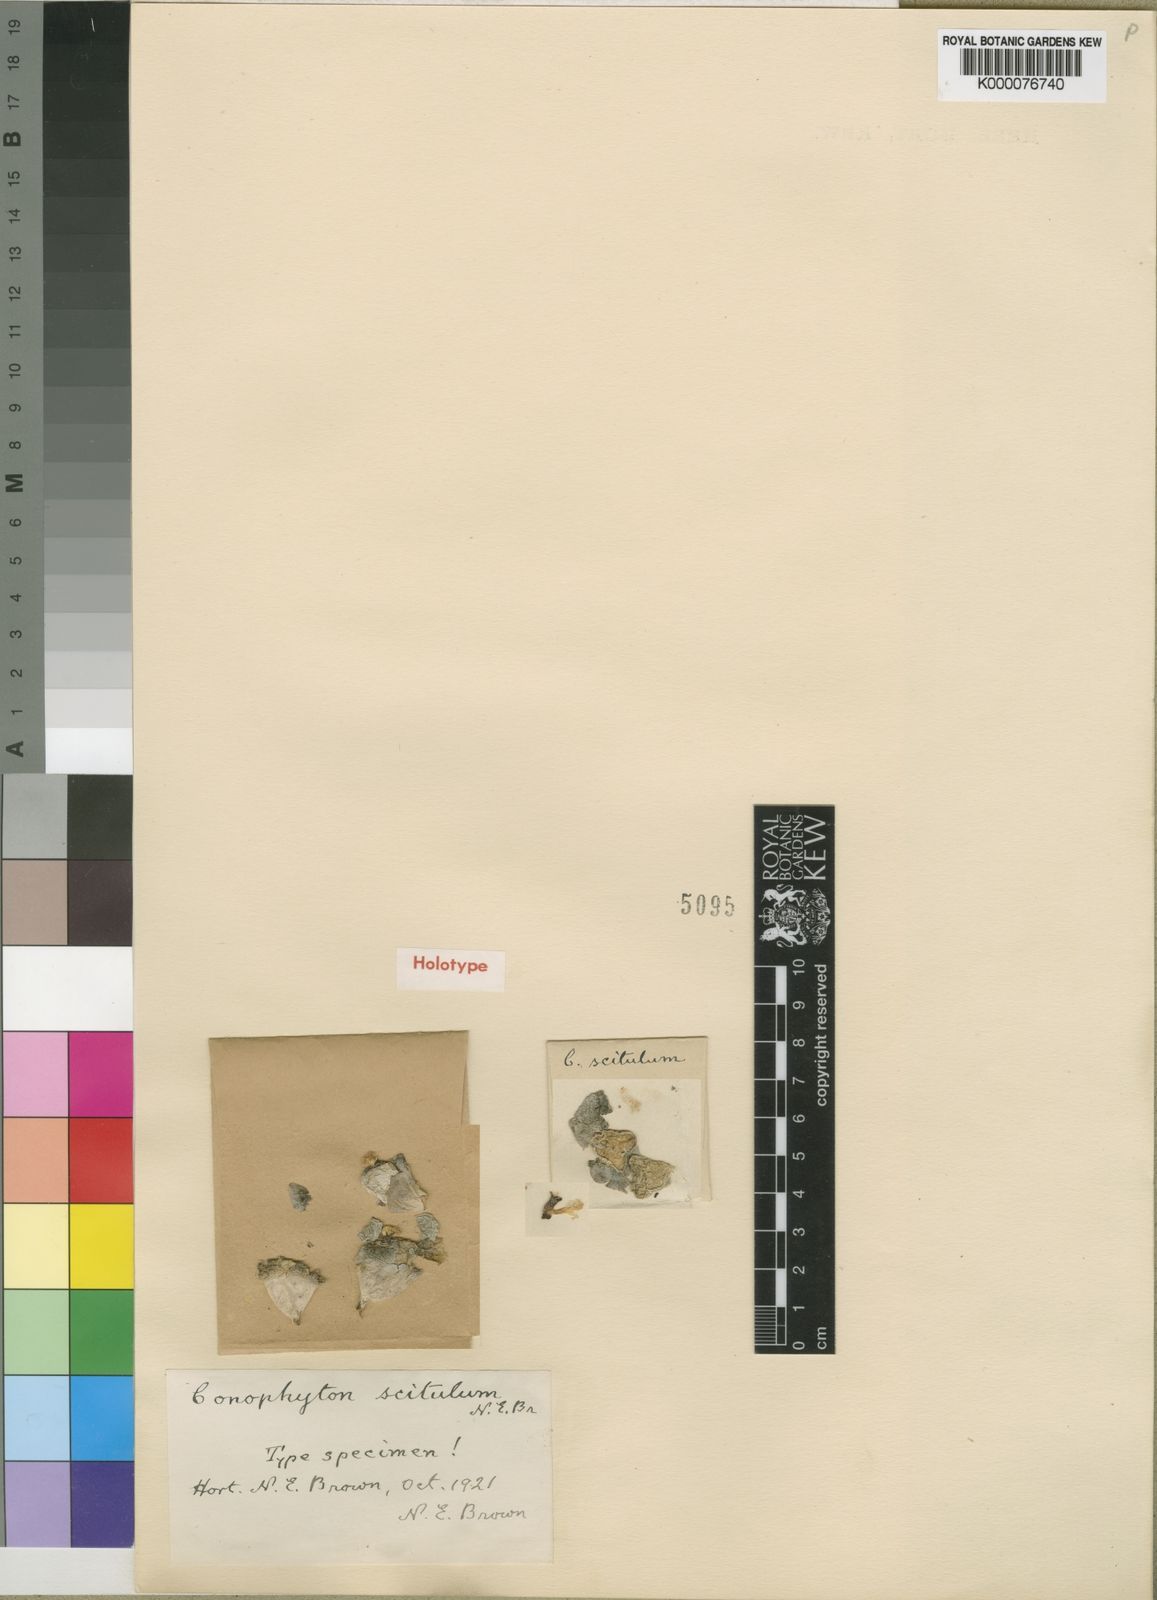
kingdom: Plantae
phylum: Tracheophyta
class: Magnoliopsida
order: Caryophyllales
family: Aizoaceae
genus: Conophytum
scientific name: Conophytum minimum
